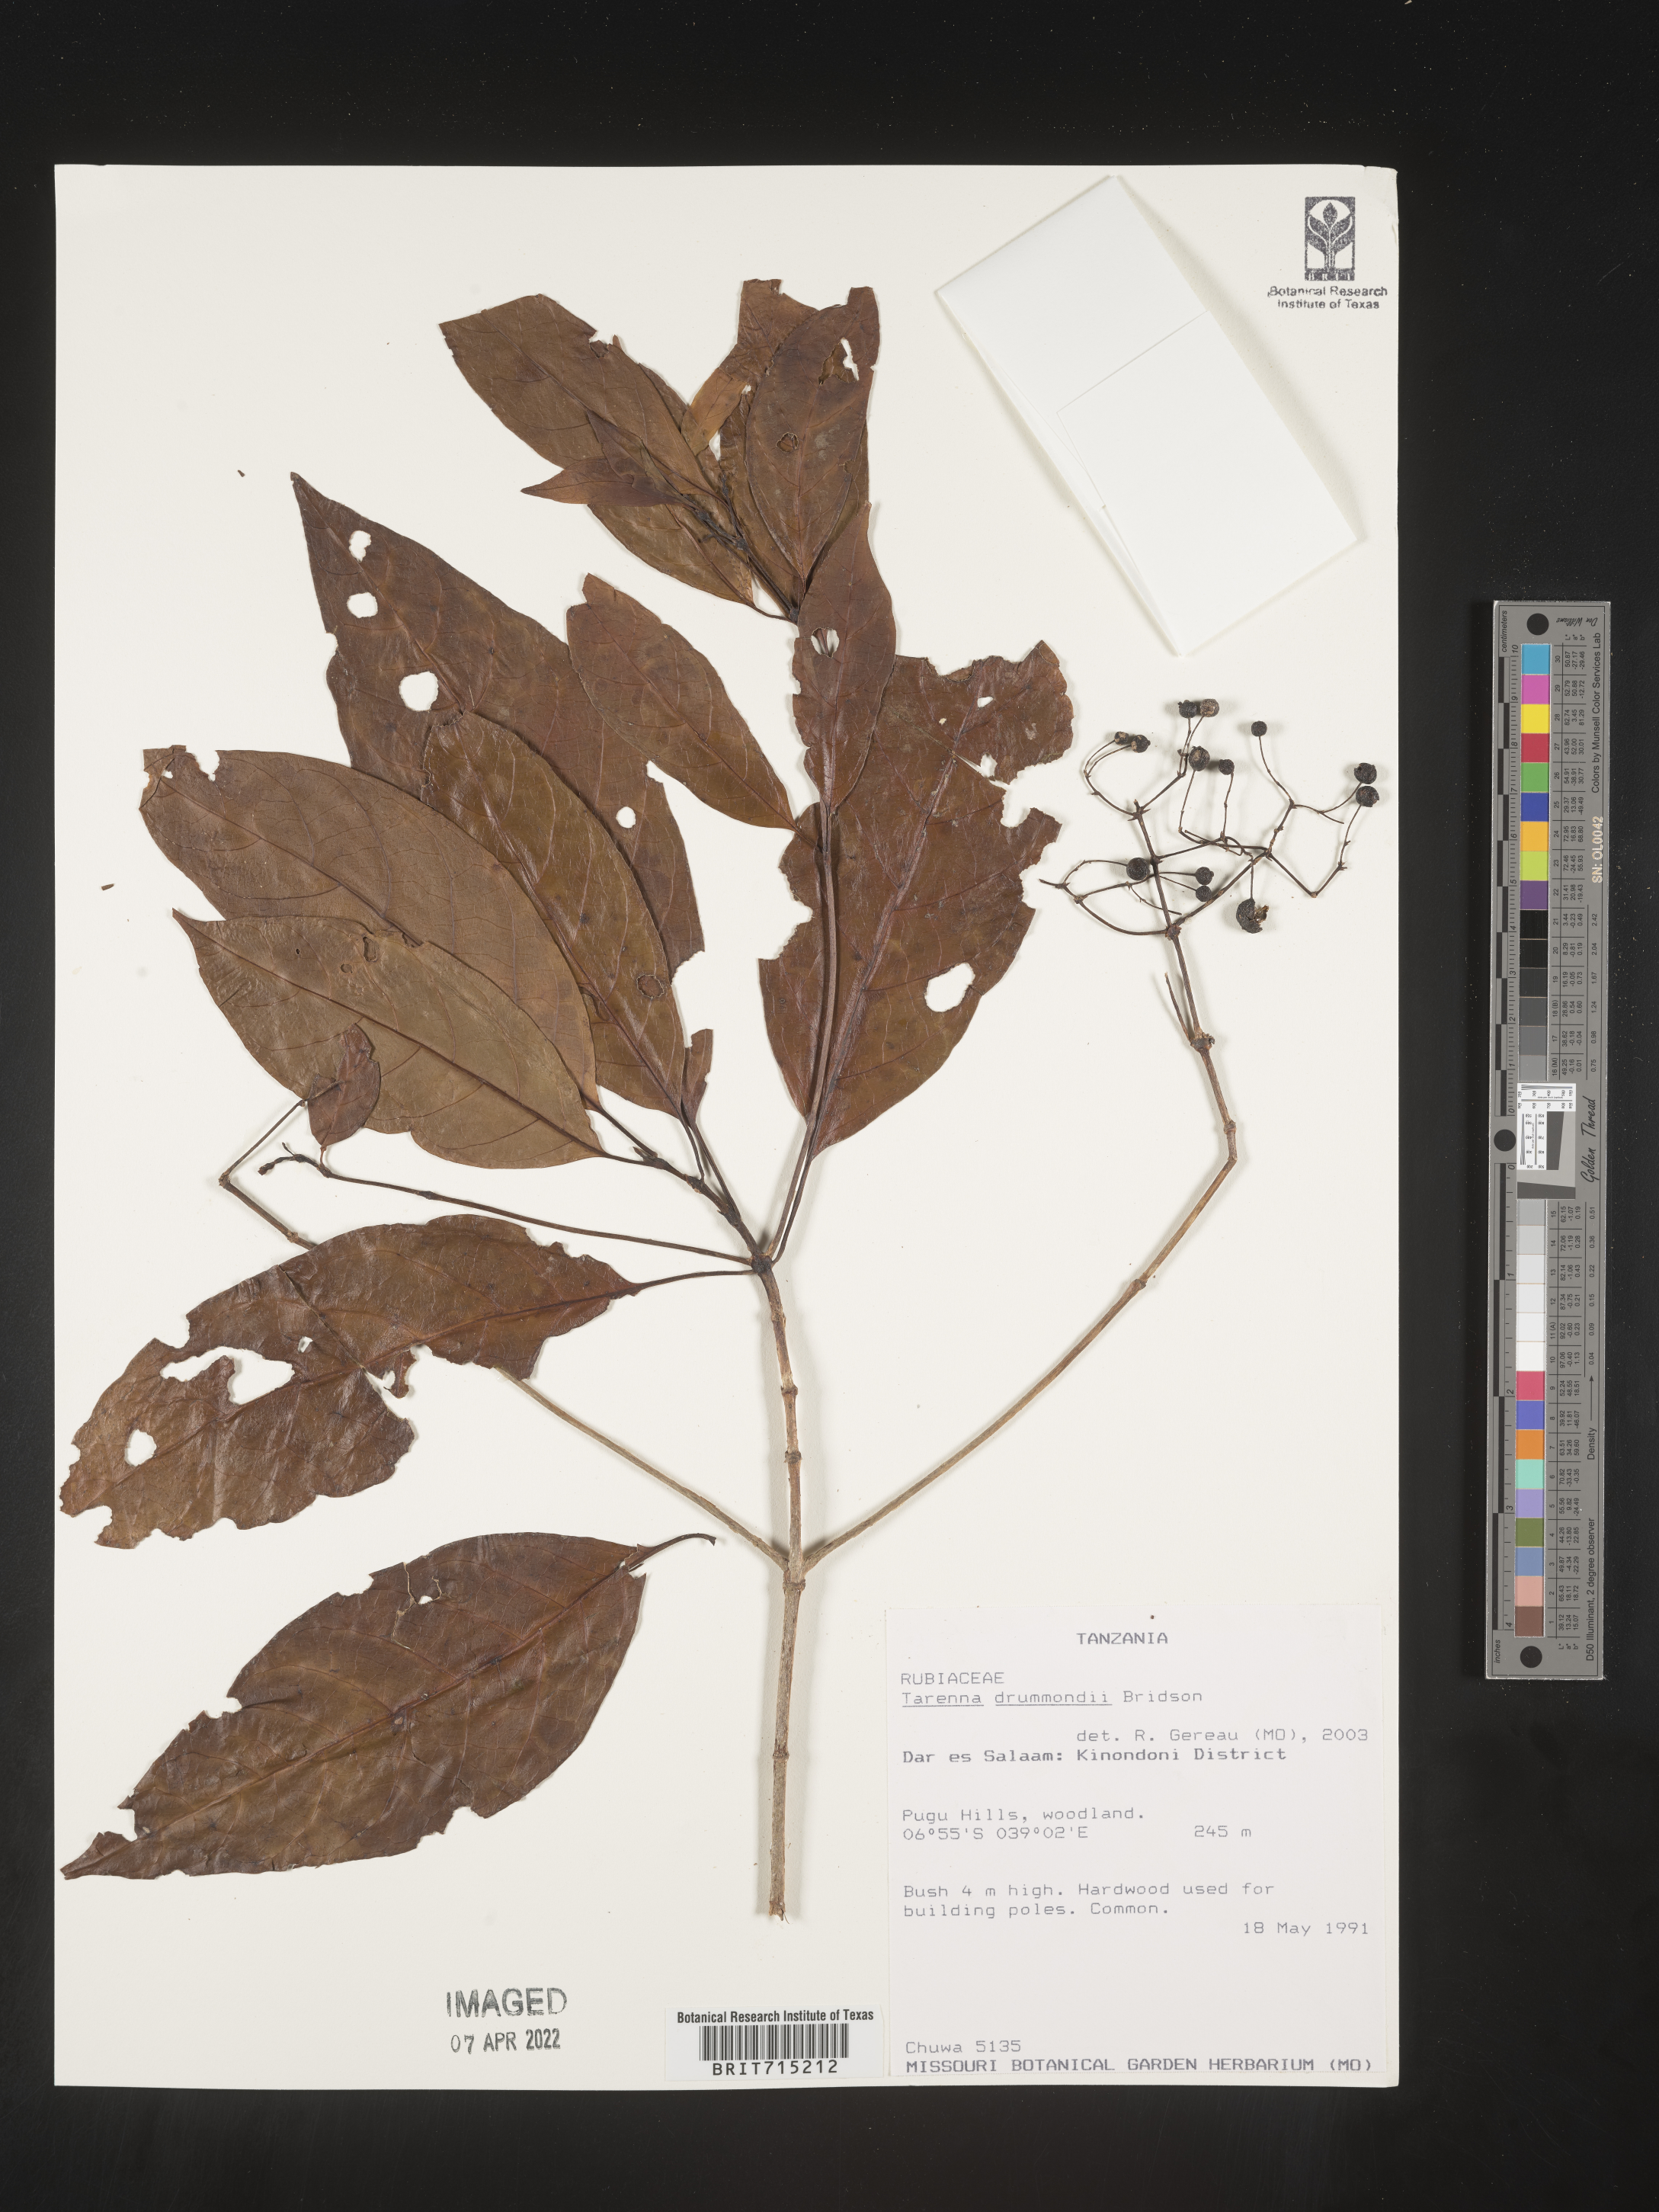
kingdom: Plantae
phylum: Tracheophyta
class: Magnoliopsida
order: Gentianales
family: Rubiaceae
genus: Tarenna
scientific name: Tarenna
